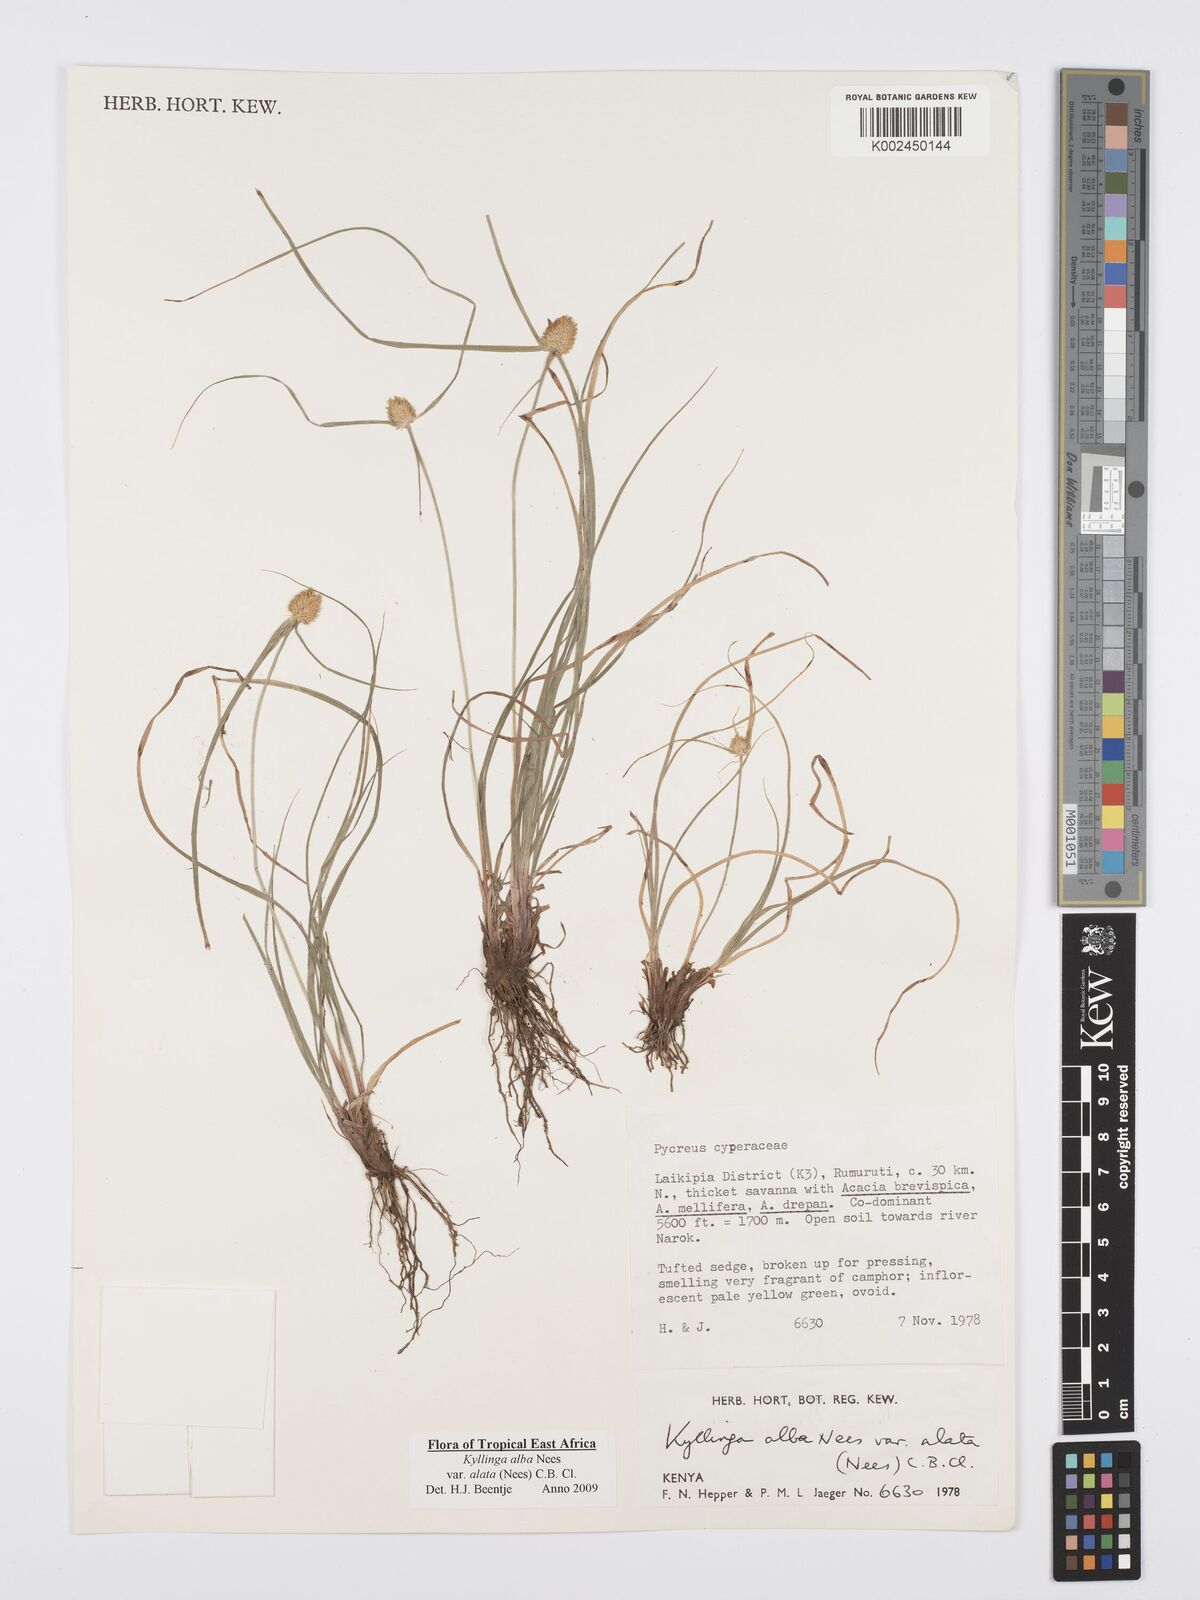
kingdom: Plantae
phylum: Tracheophyta
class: Liliopsida
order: Poales
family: Cyperaceae
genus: Cyperus
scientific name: Cyperus alatus
